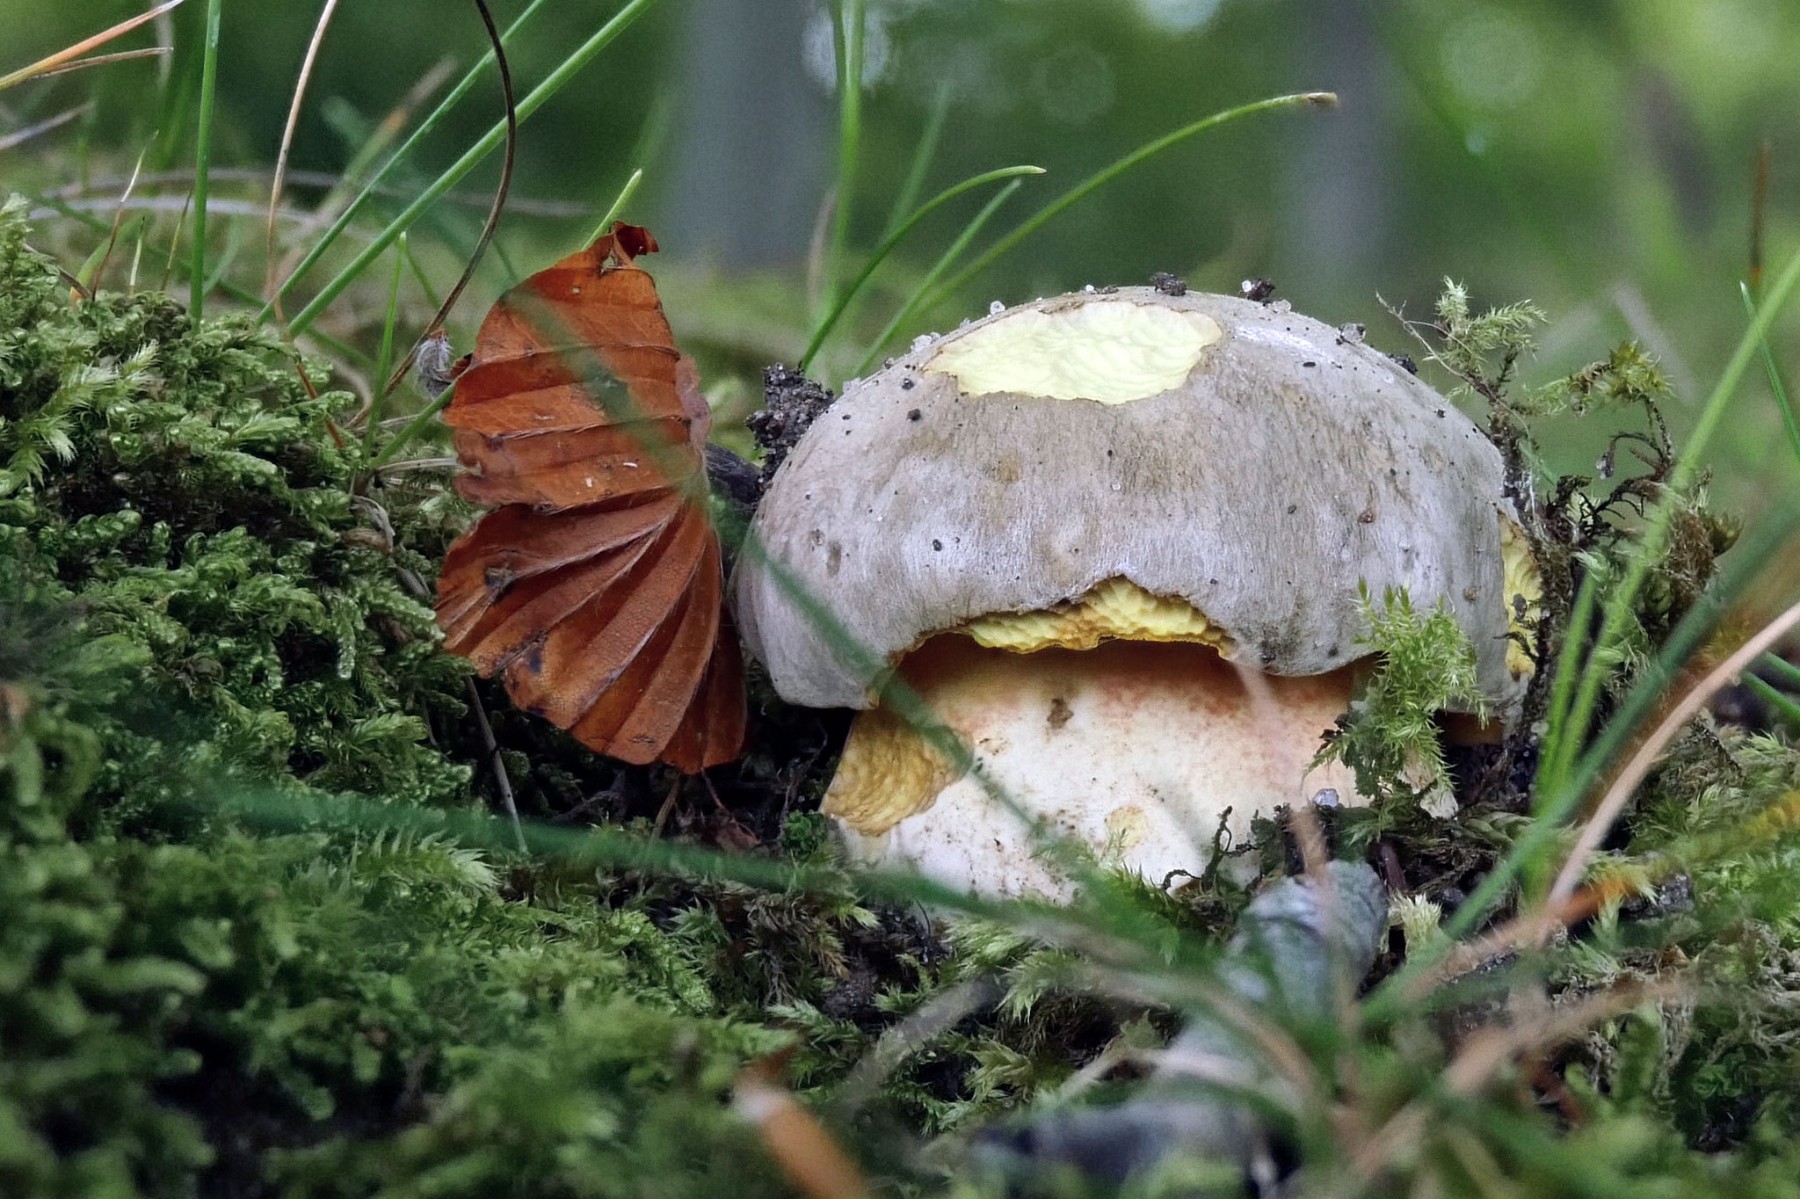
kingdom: Fungi
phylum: Basidiomycota
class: Agaricomycetes
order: Boletales
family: Boletaceae
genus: Butyriboletus
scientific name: Butyriboletus fechtneri
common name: sølvskinnende rørhat
